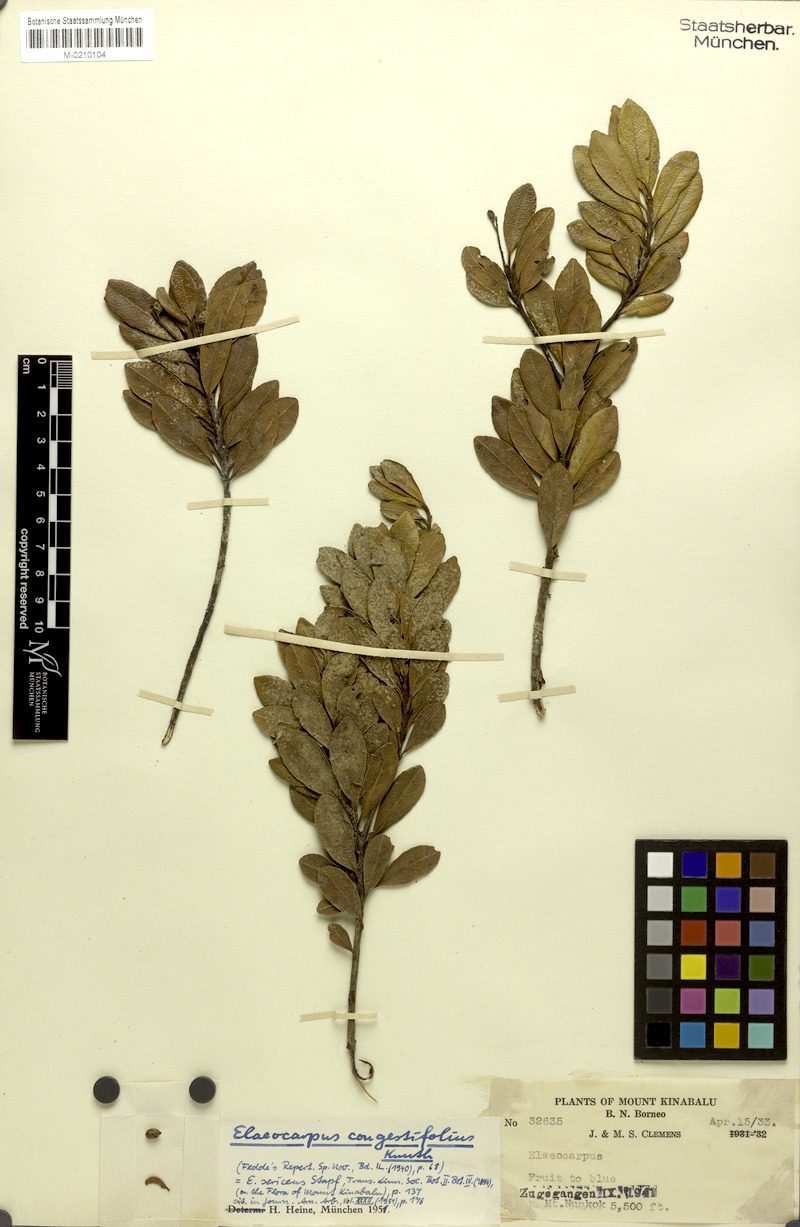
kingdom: Plantae
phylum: Tracheophyta
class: Magnoliopsida
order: Oxalidales
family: Elaeocarpaceae
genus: Elaeocarpus
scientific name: Elaeocarpus nanus
